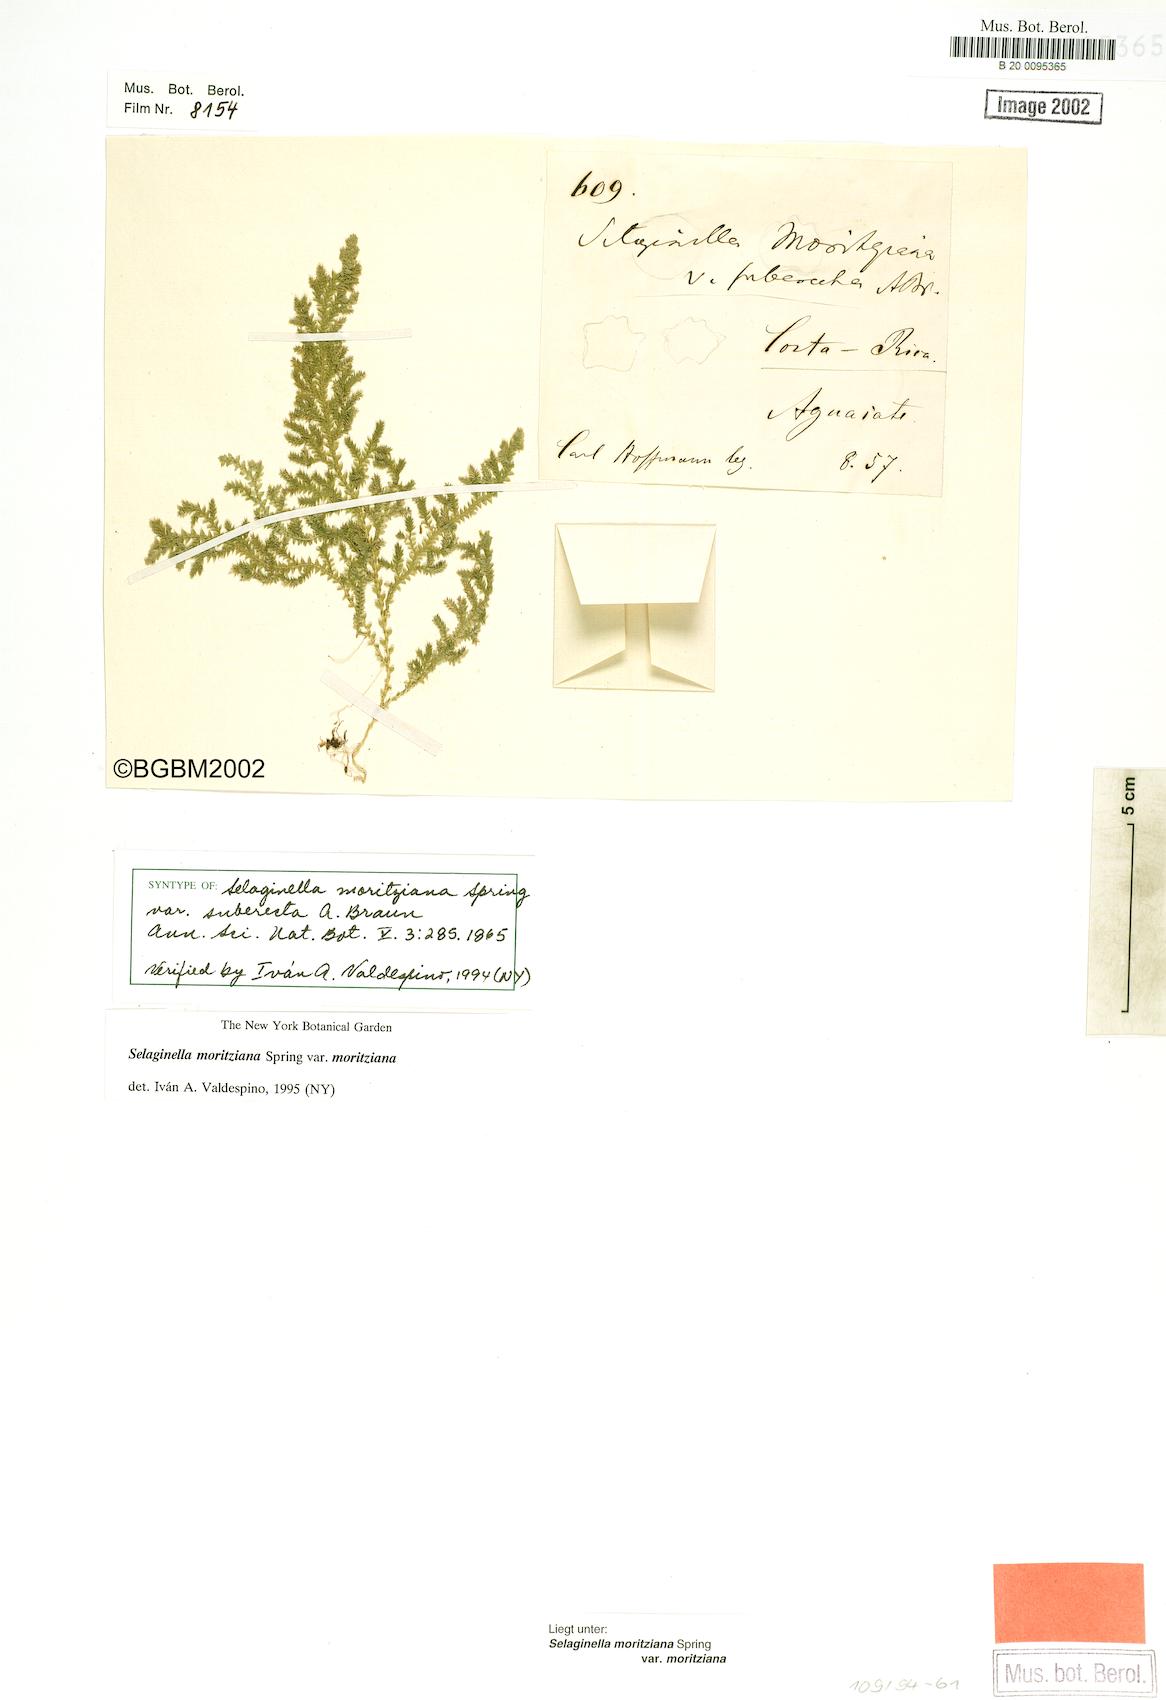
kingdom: Plantae
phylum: Tracheophyta
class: Lycopodiopsida
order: Selaginellales
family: Selaginellaceae
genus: Selaginella
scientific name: Selaginella moritziana
